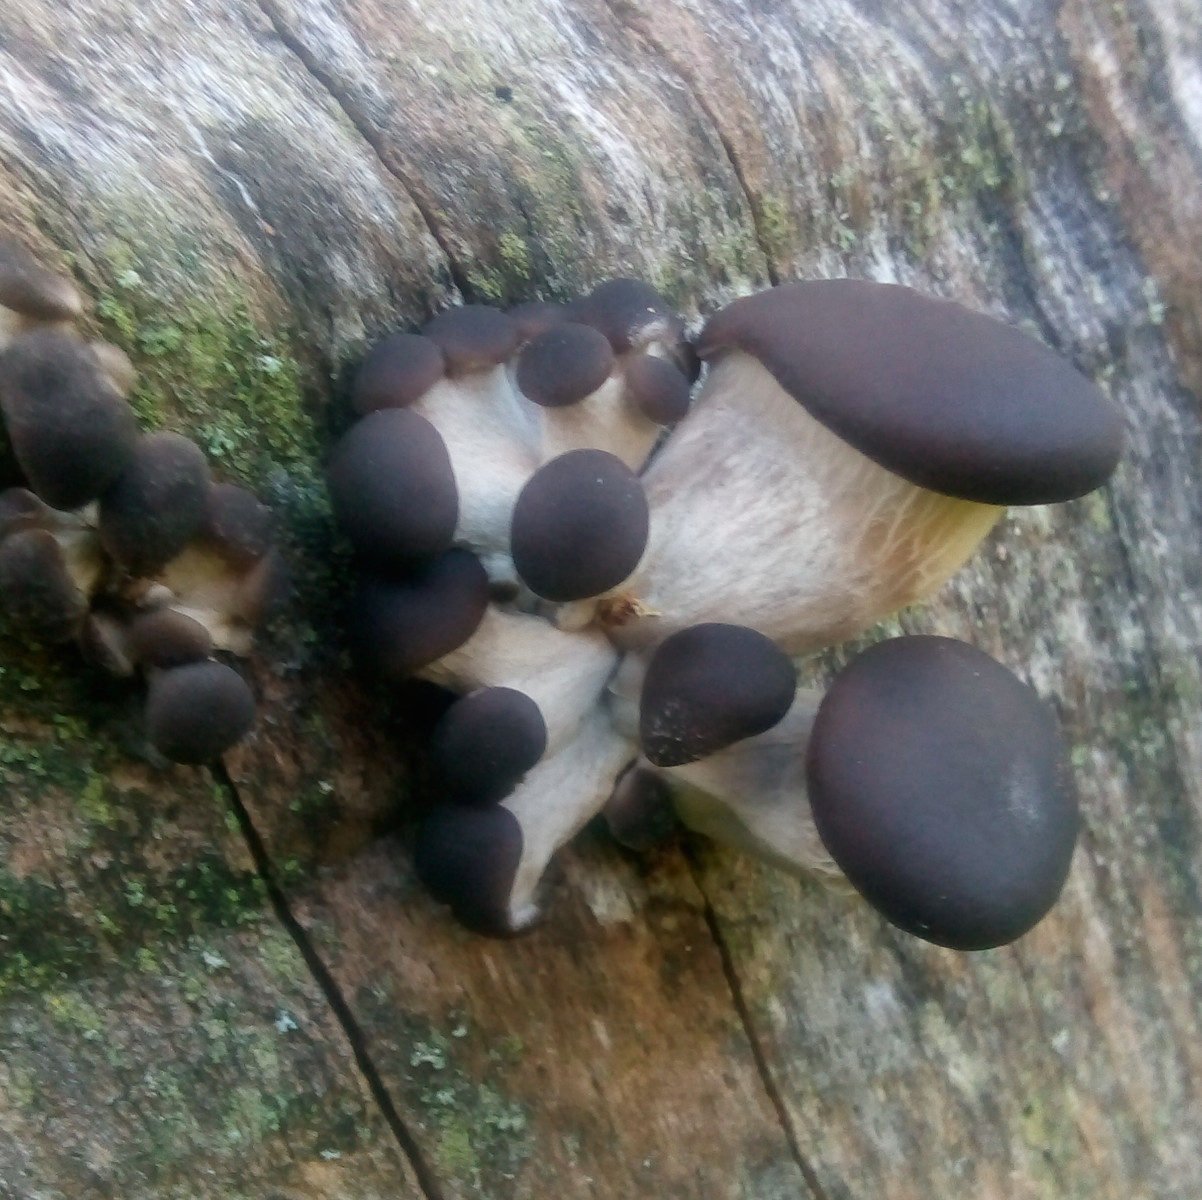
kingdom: Fungi
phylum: Basidiomycota
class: Agaricomycetes
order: Agaricales
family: Pleurotaceae
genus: Pleurotus
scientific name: Pleurotus ostreatus
